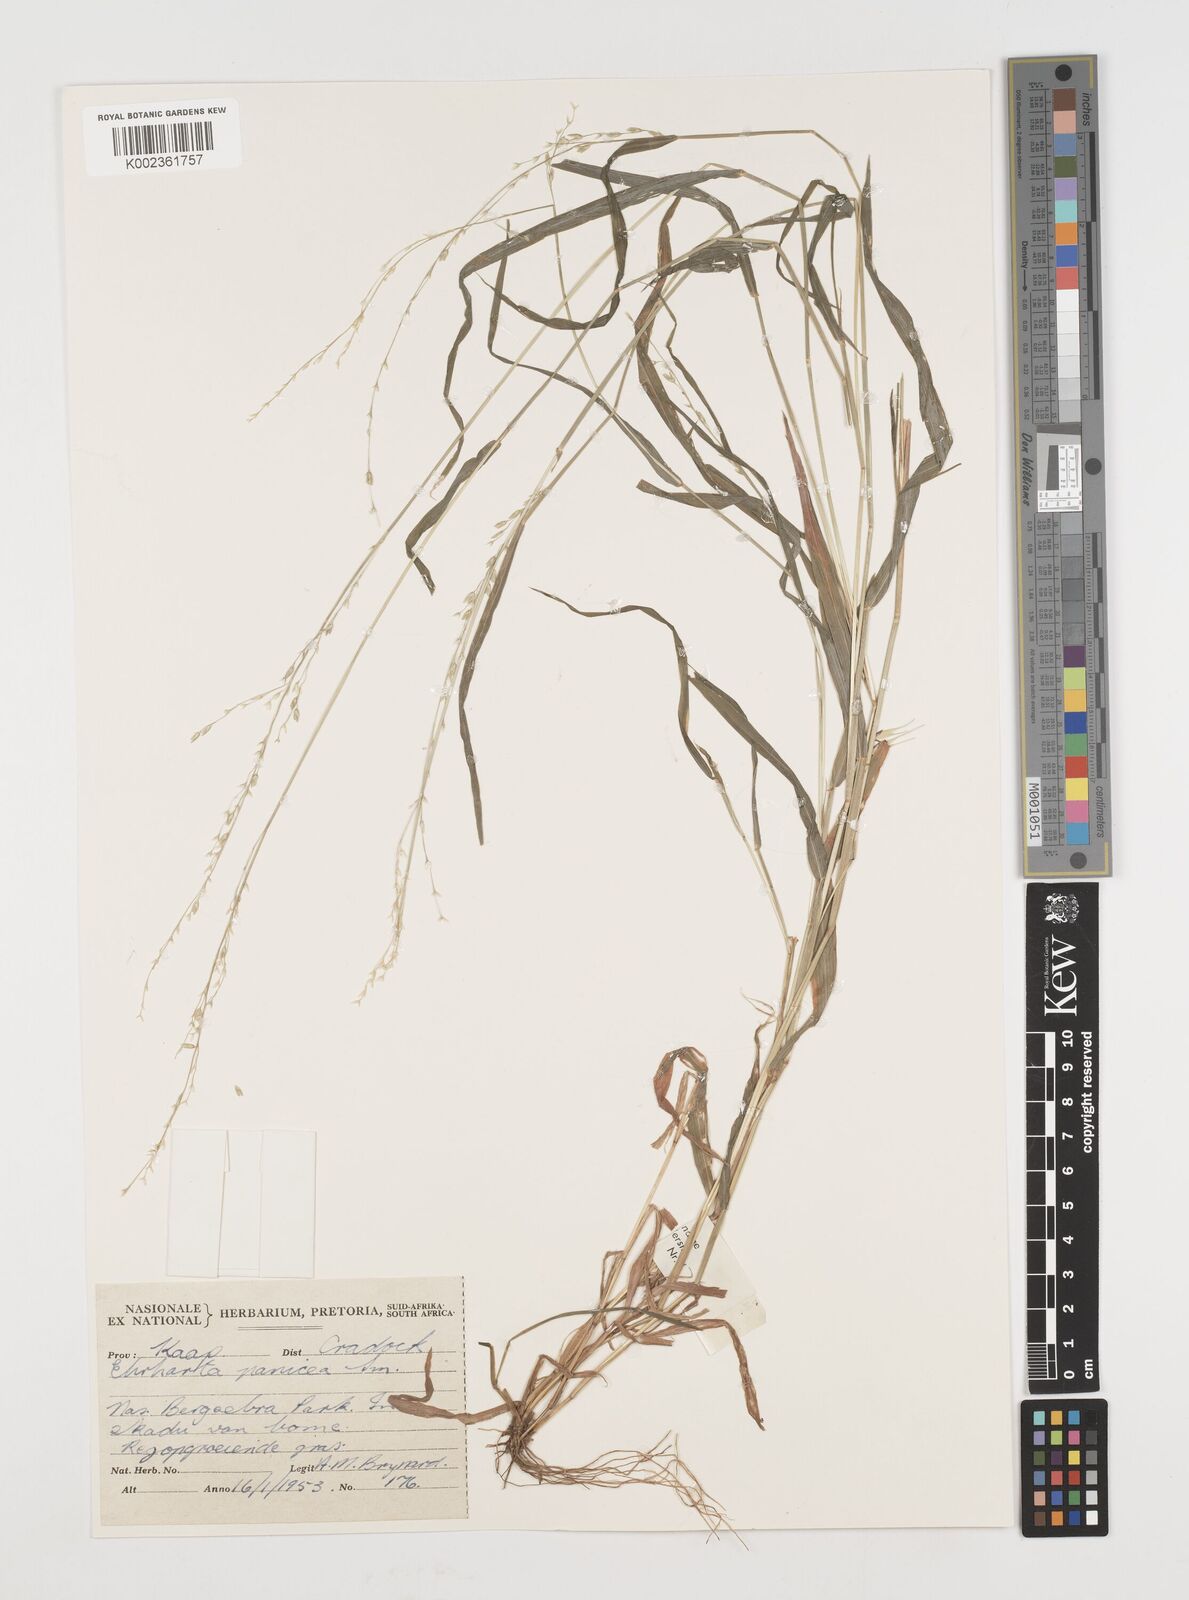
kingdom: Plantae
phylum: Tracheophyta
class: Liliopsida
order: Poales
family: Poaceae
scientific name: Poaceae
